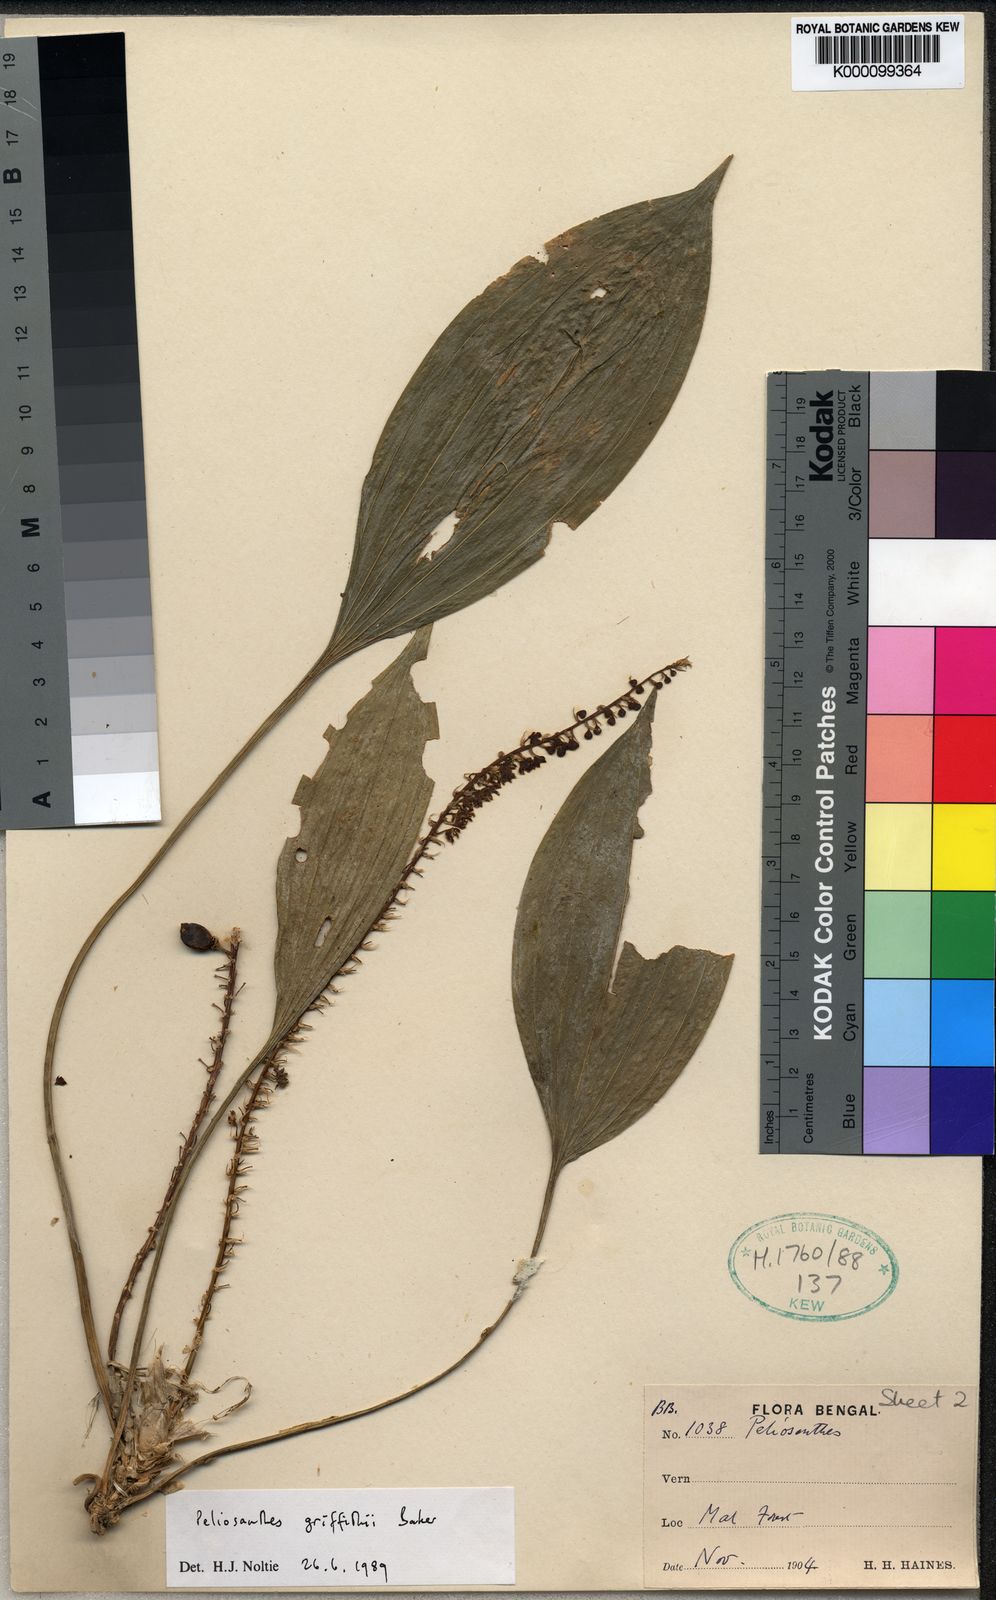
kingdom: Plantae
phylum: Tracheophyta
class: Liliopsida
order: Asparagales
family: Asparagaceae
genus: Peliosanthes
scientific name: Peliosanthes griffithii
